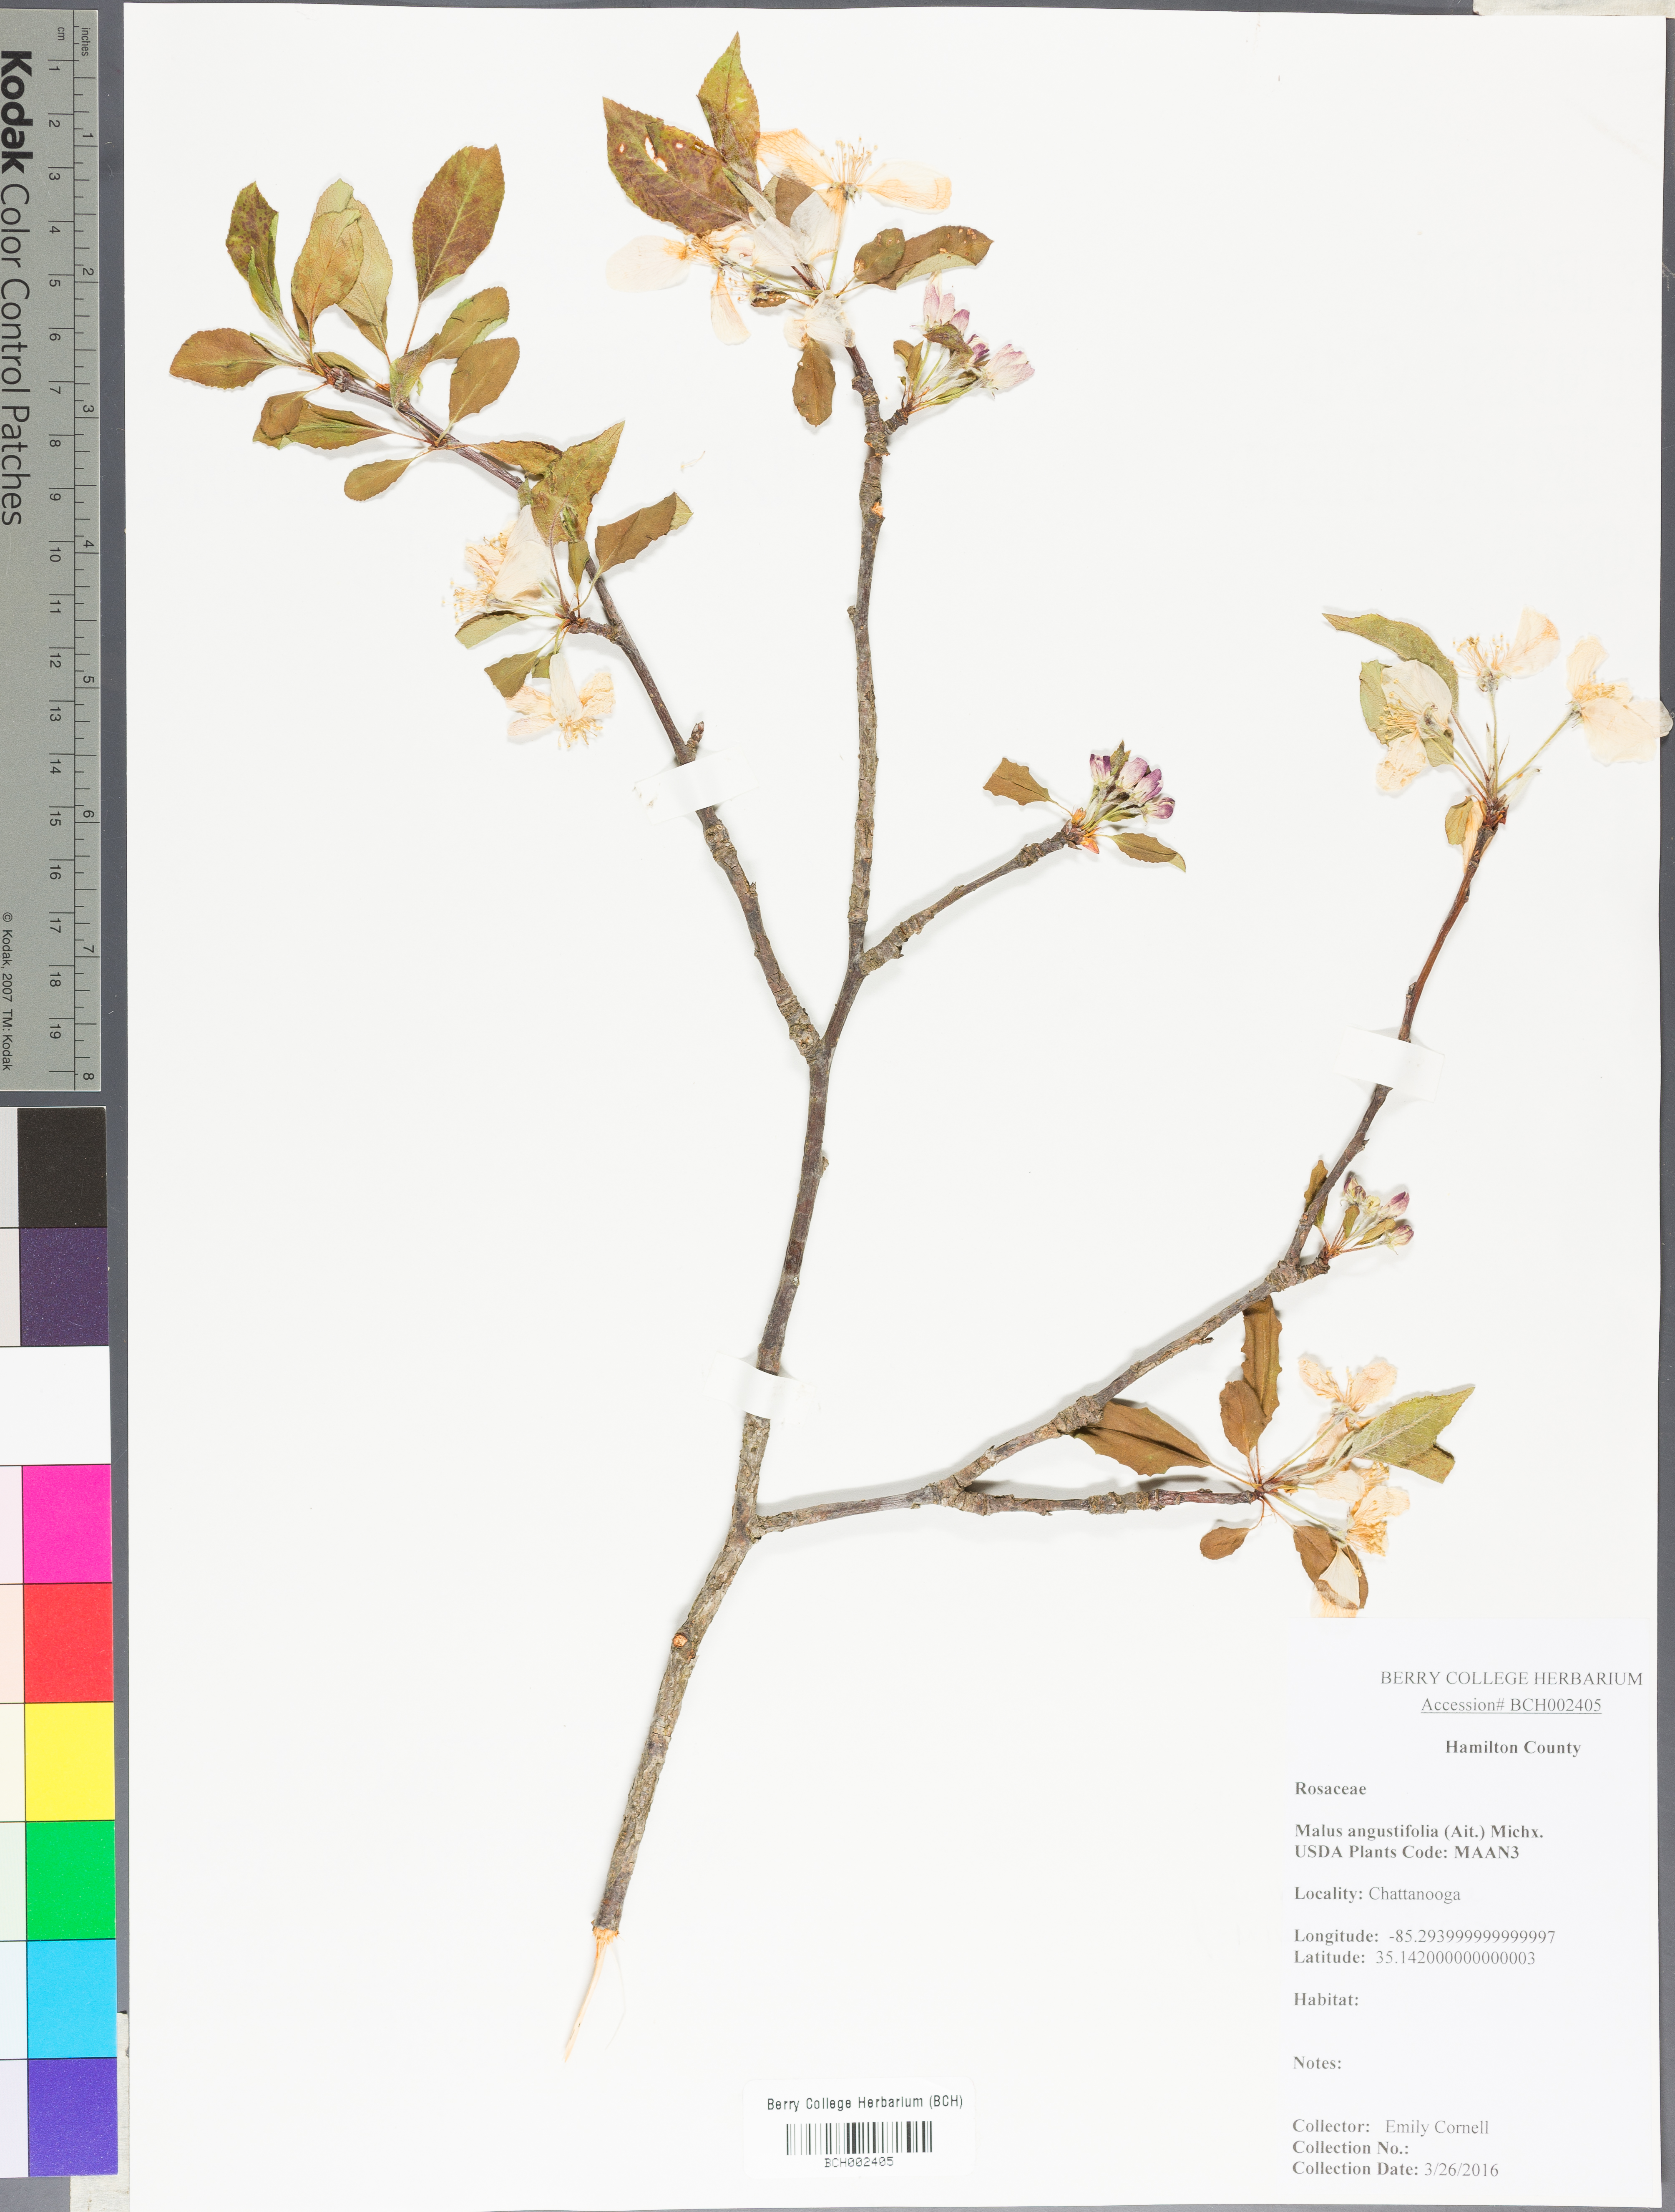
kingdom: Plantae
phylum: Tracheophyta
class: Magnoliopsida
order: Rosales
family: Rosaceae
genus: Malus
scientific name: Malus angustifolia
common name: Southern crab apple
